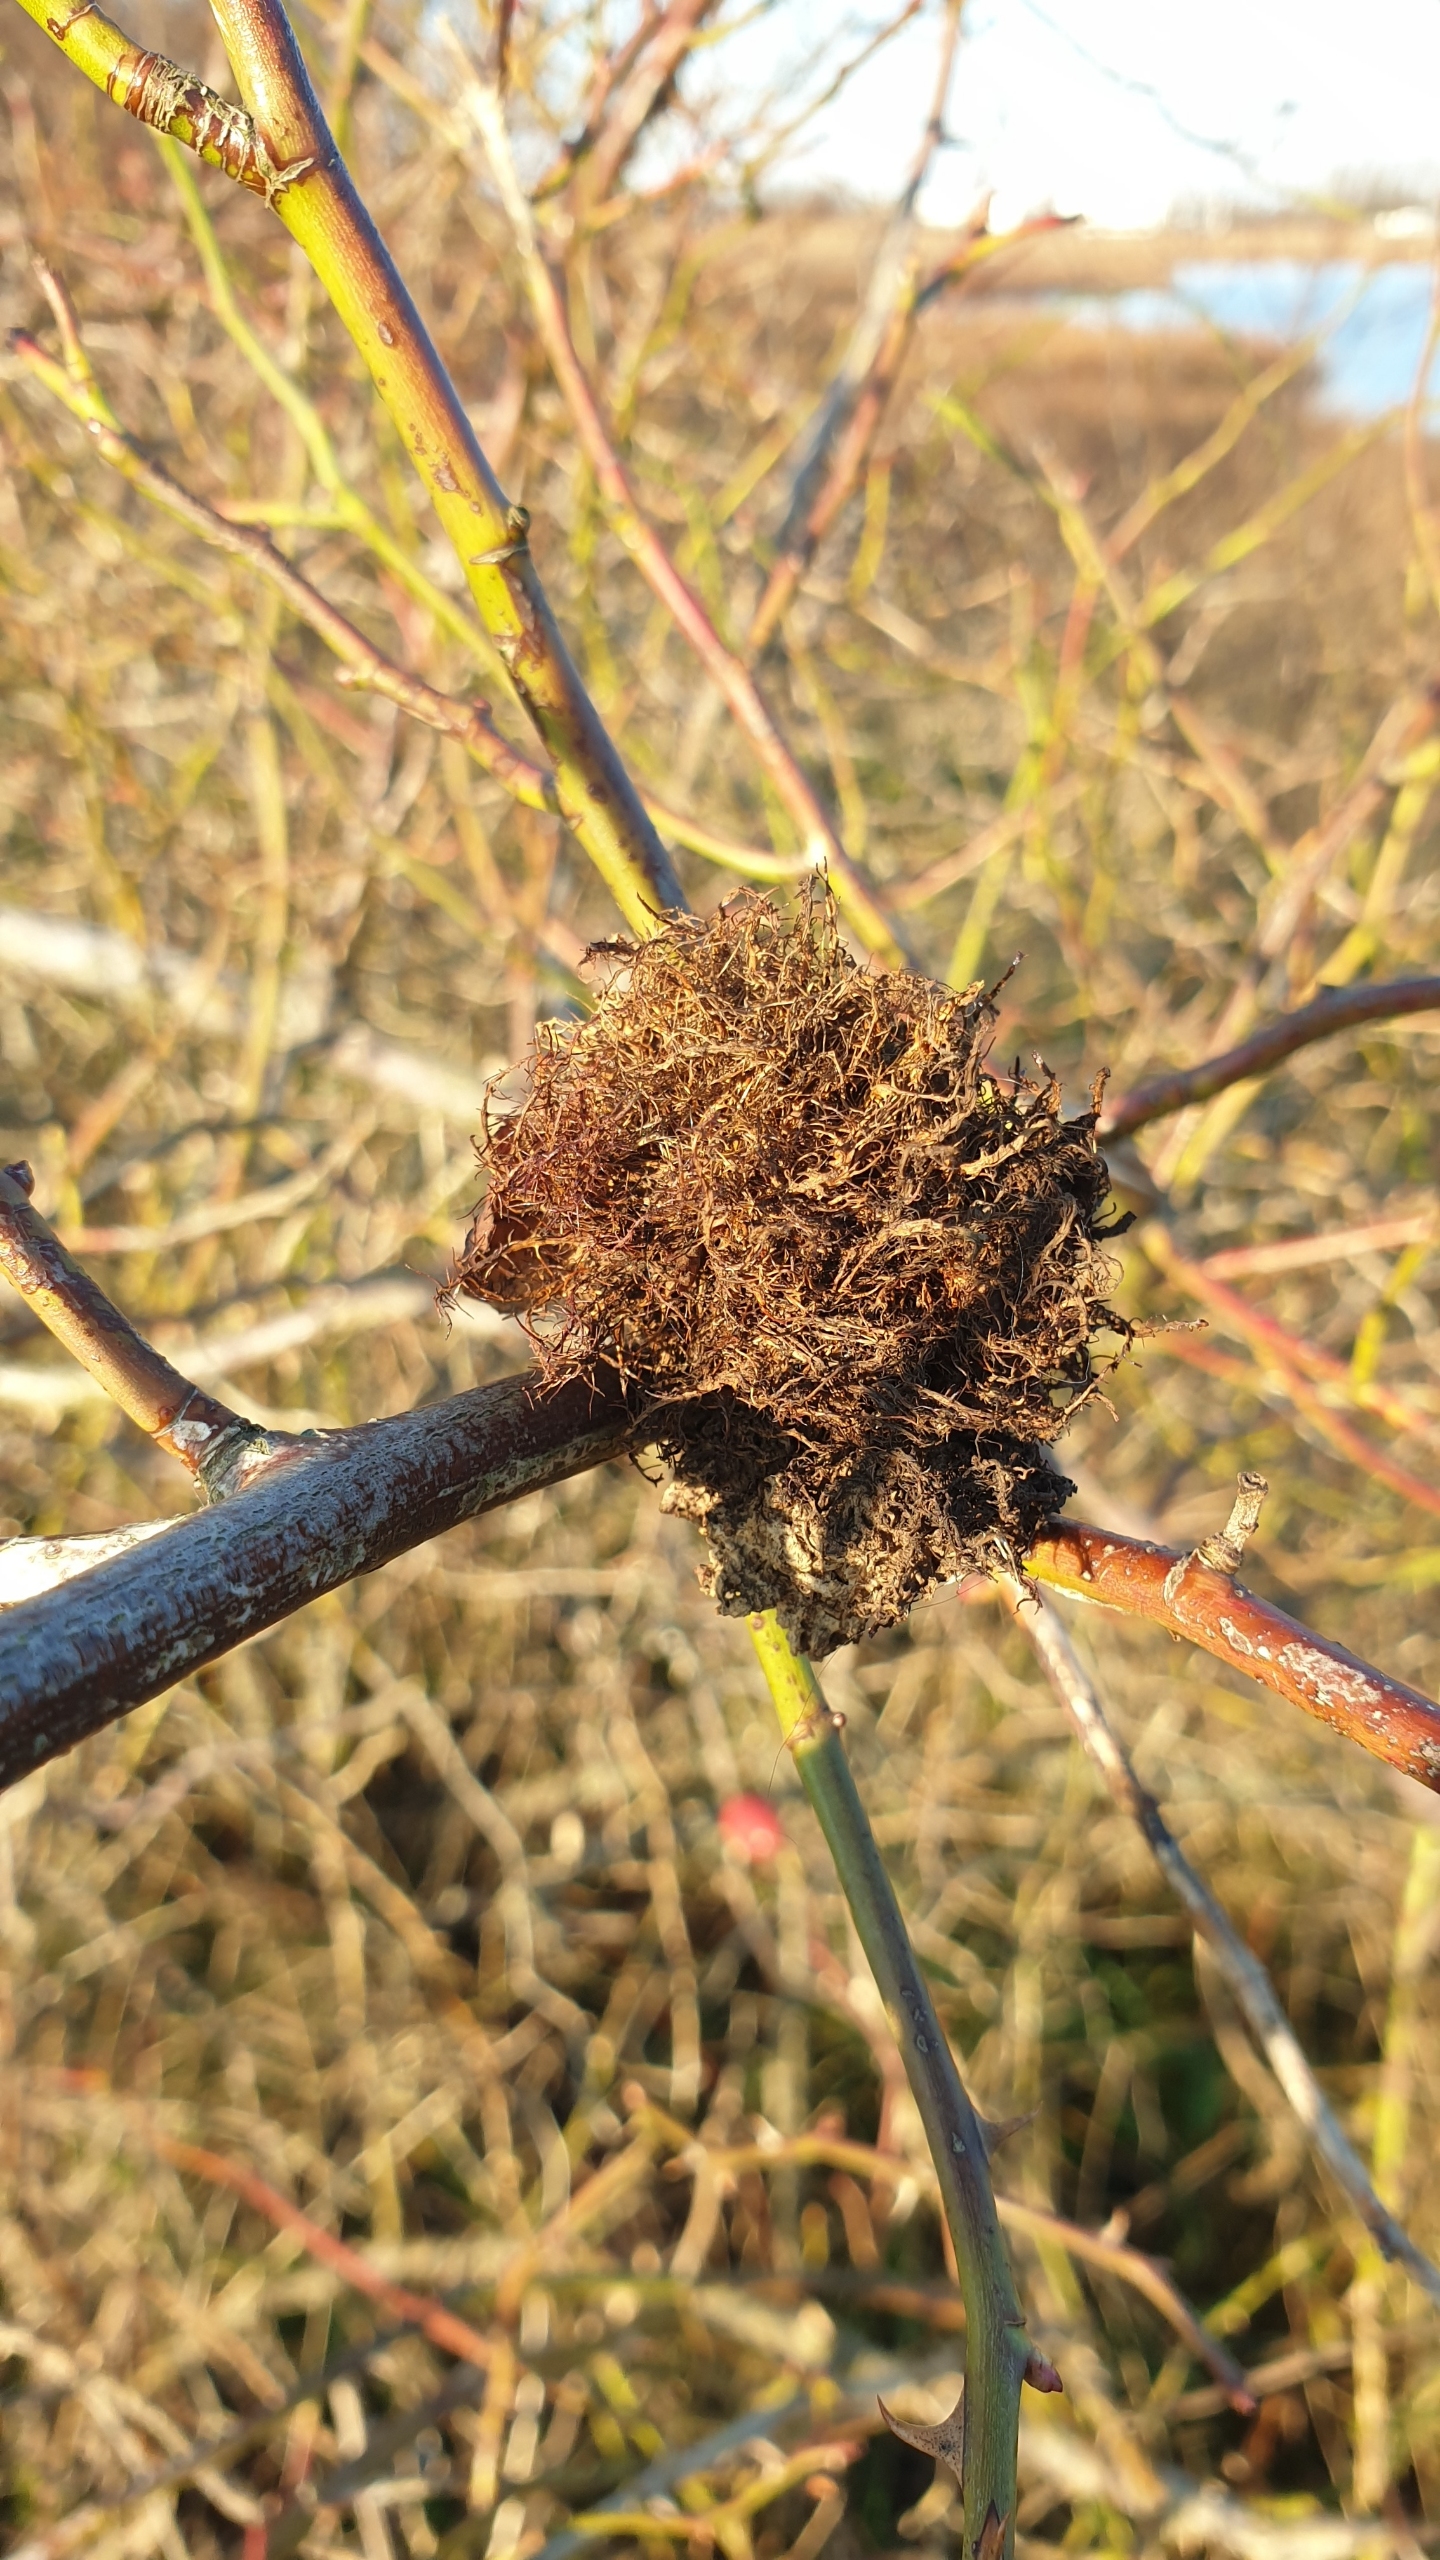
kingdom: Animalia
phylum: Arthropoda
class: Insecta
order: Hymenoptera
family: Cynipidae
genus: Diplolepis
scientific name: Diplolepis rosae
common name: Bedeguargalhveps
